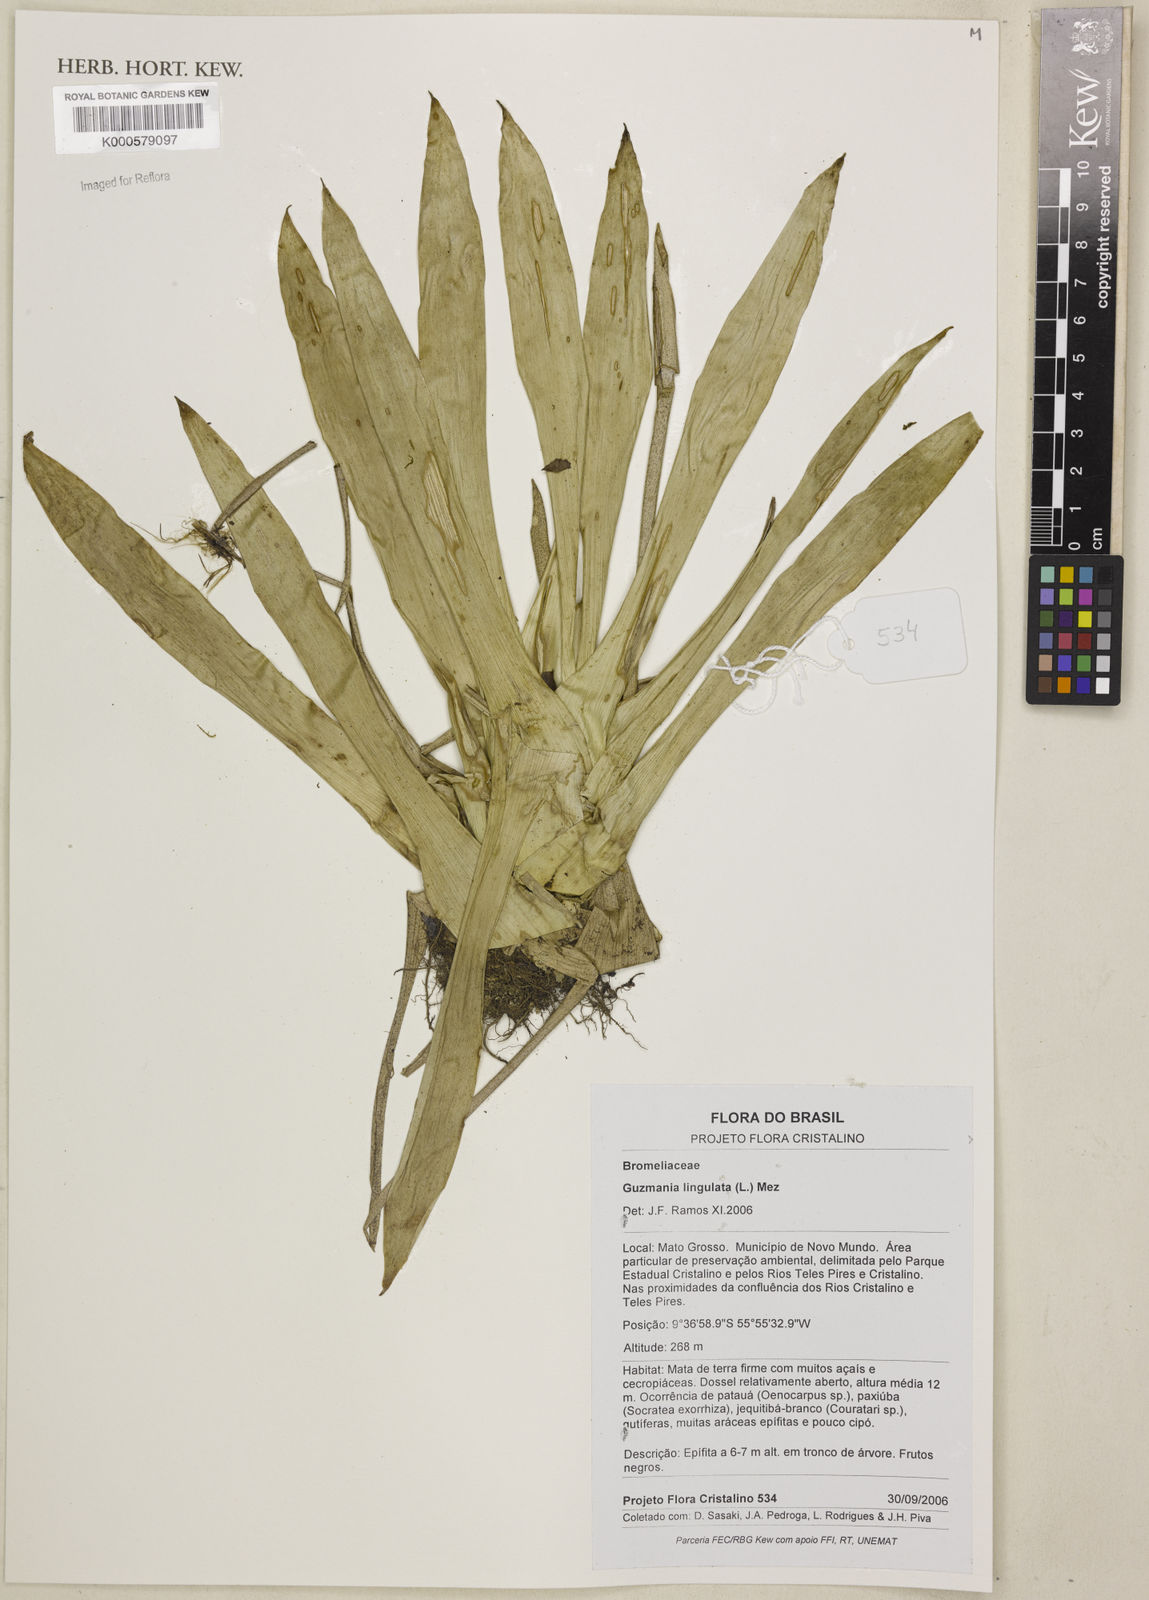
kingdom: Plantae
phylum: Tracheophyta
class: Liliopsida
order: Poales
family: Bromeliaceae
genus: Guzmania
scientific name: Guzmania lingulata
